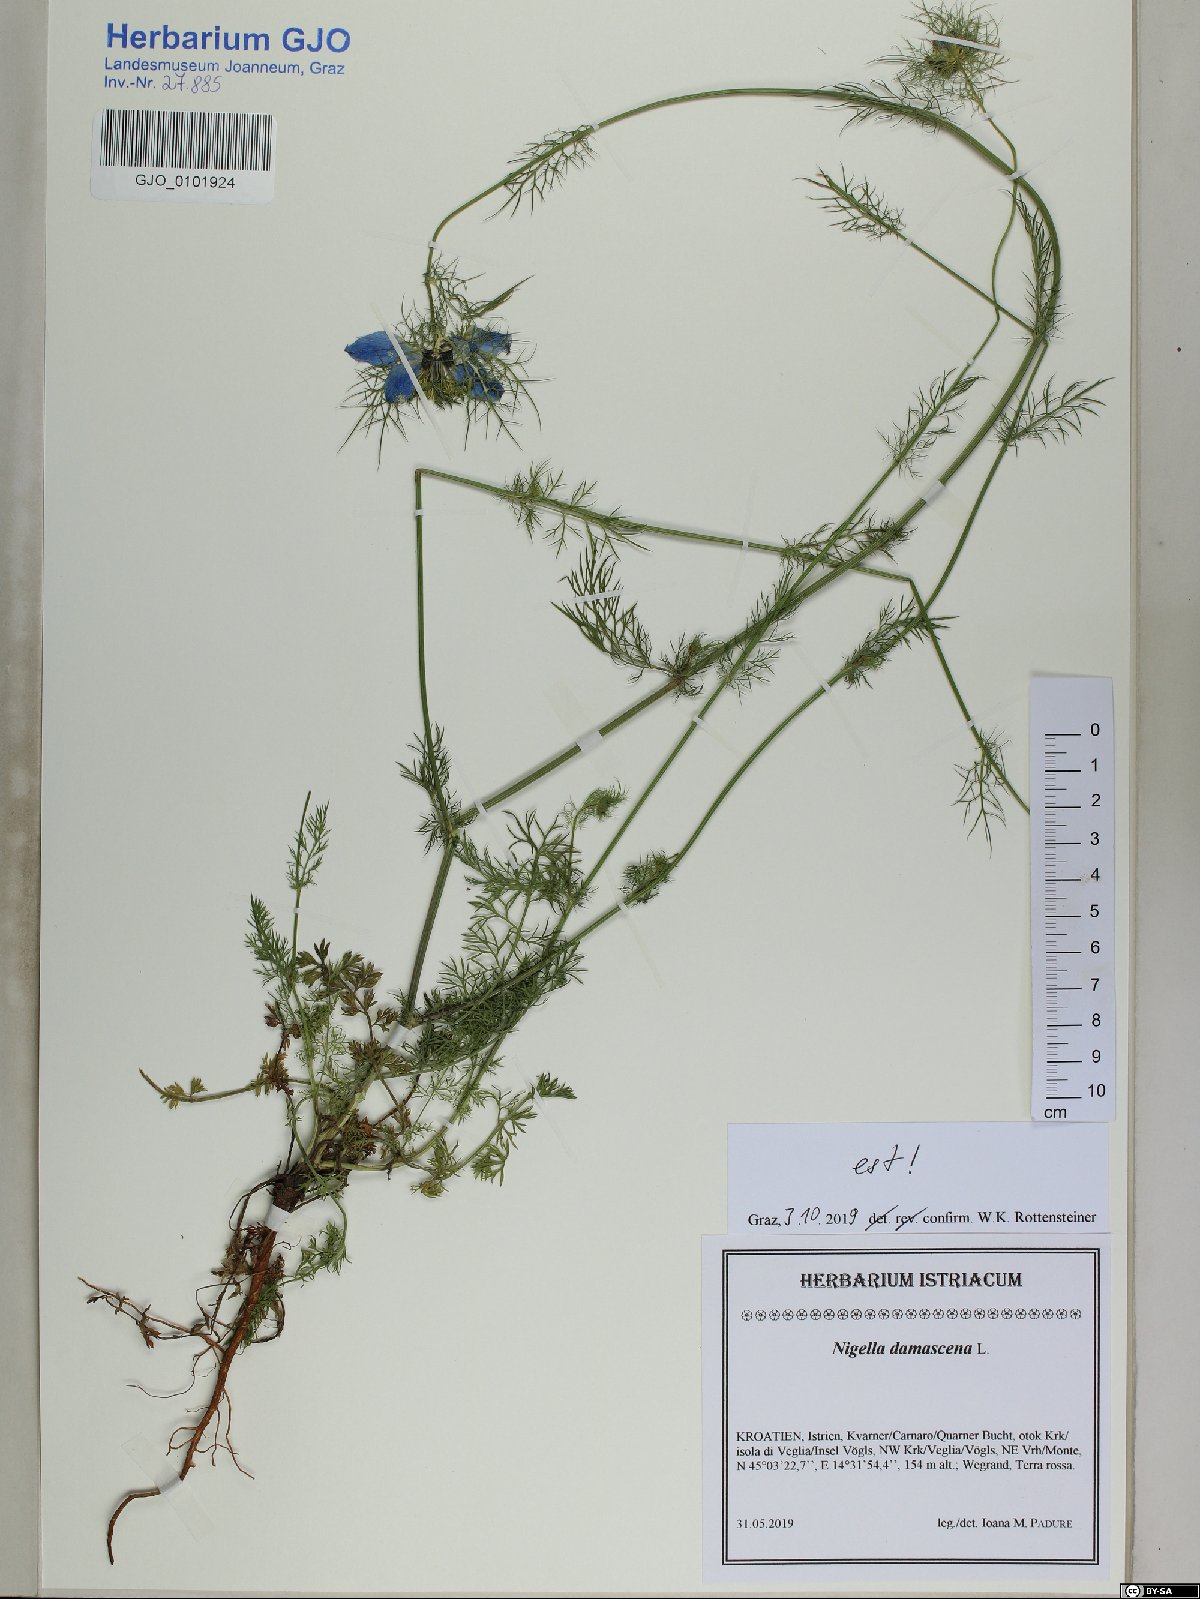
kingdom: Plantae
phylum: Tracheophyta
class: Magnoliopsida
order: Ranunculales
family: Ranunculaceae
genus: Nigella
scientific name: Nigella damascena
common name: Love-in-a-mist
